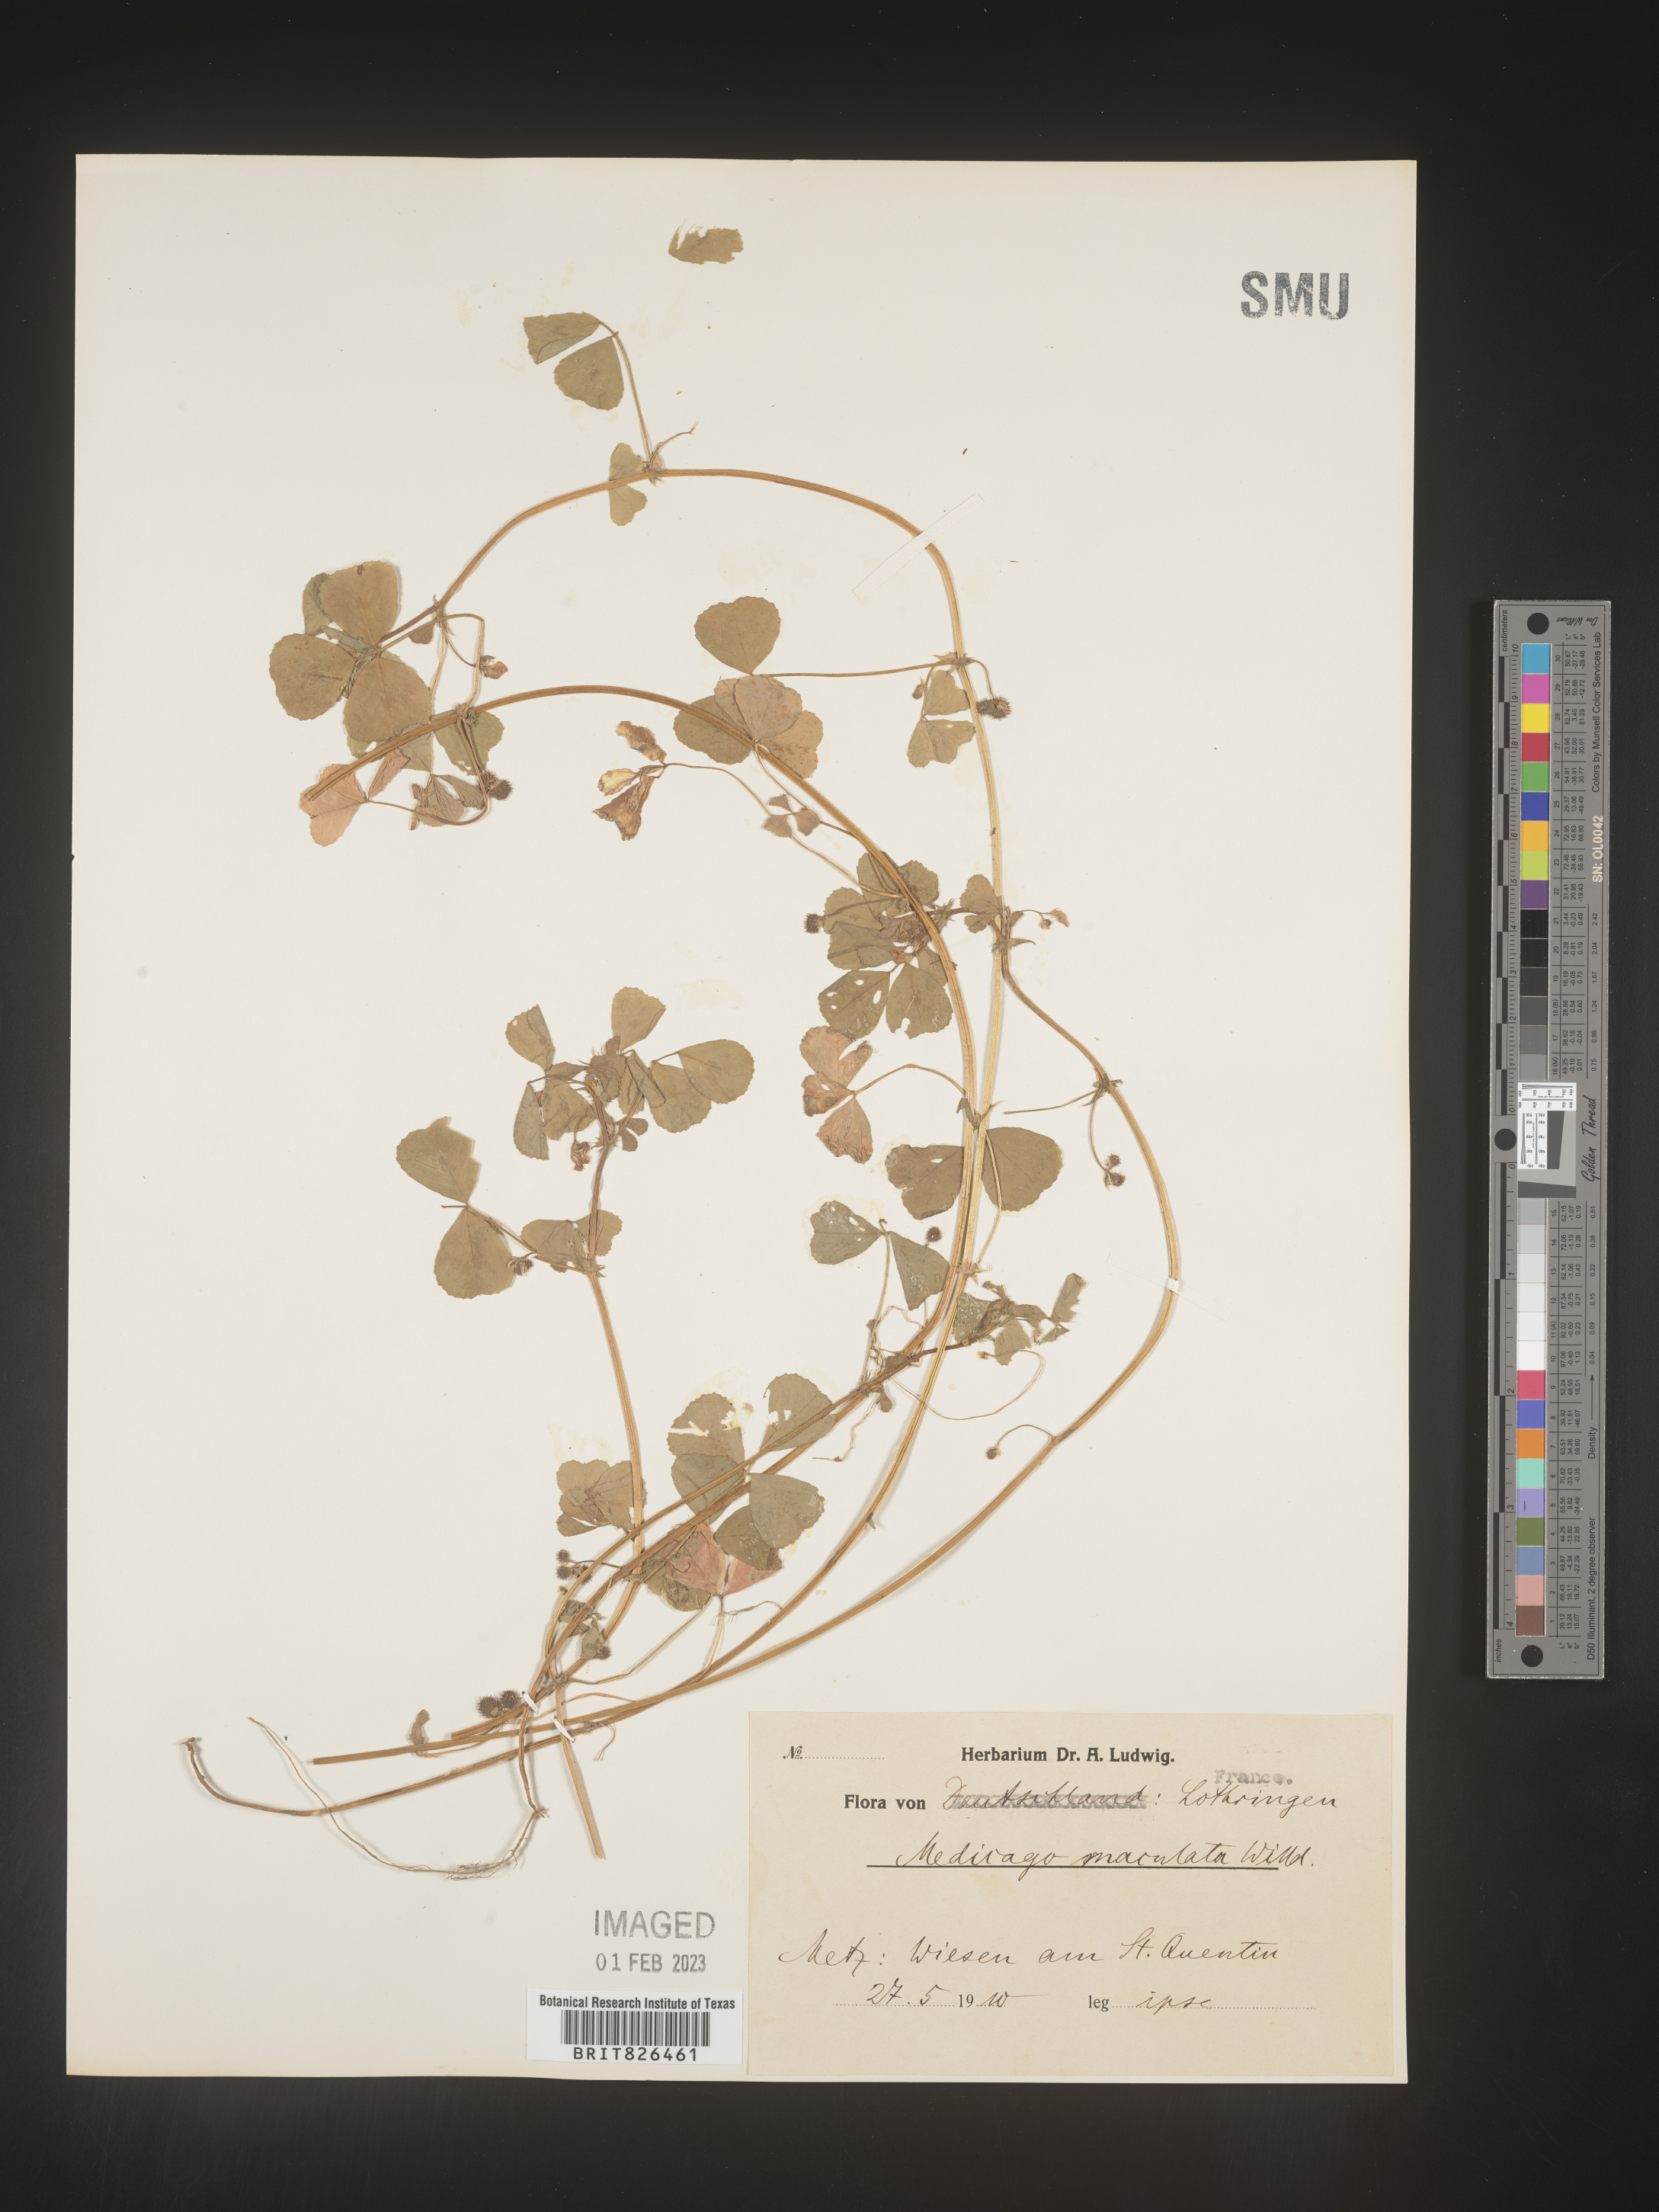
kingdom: Plantae
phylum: Tracheophyta
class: Magnoliopsida
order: Fabales
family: Fabaceae
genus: Medicago
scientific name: Medicago
